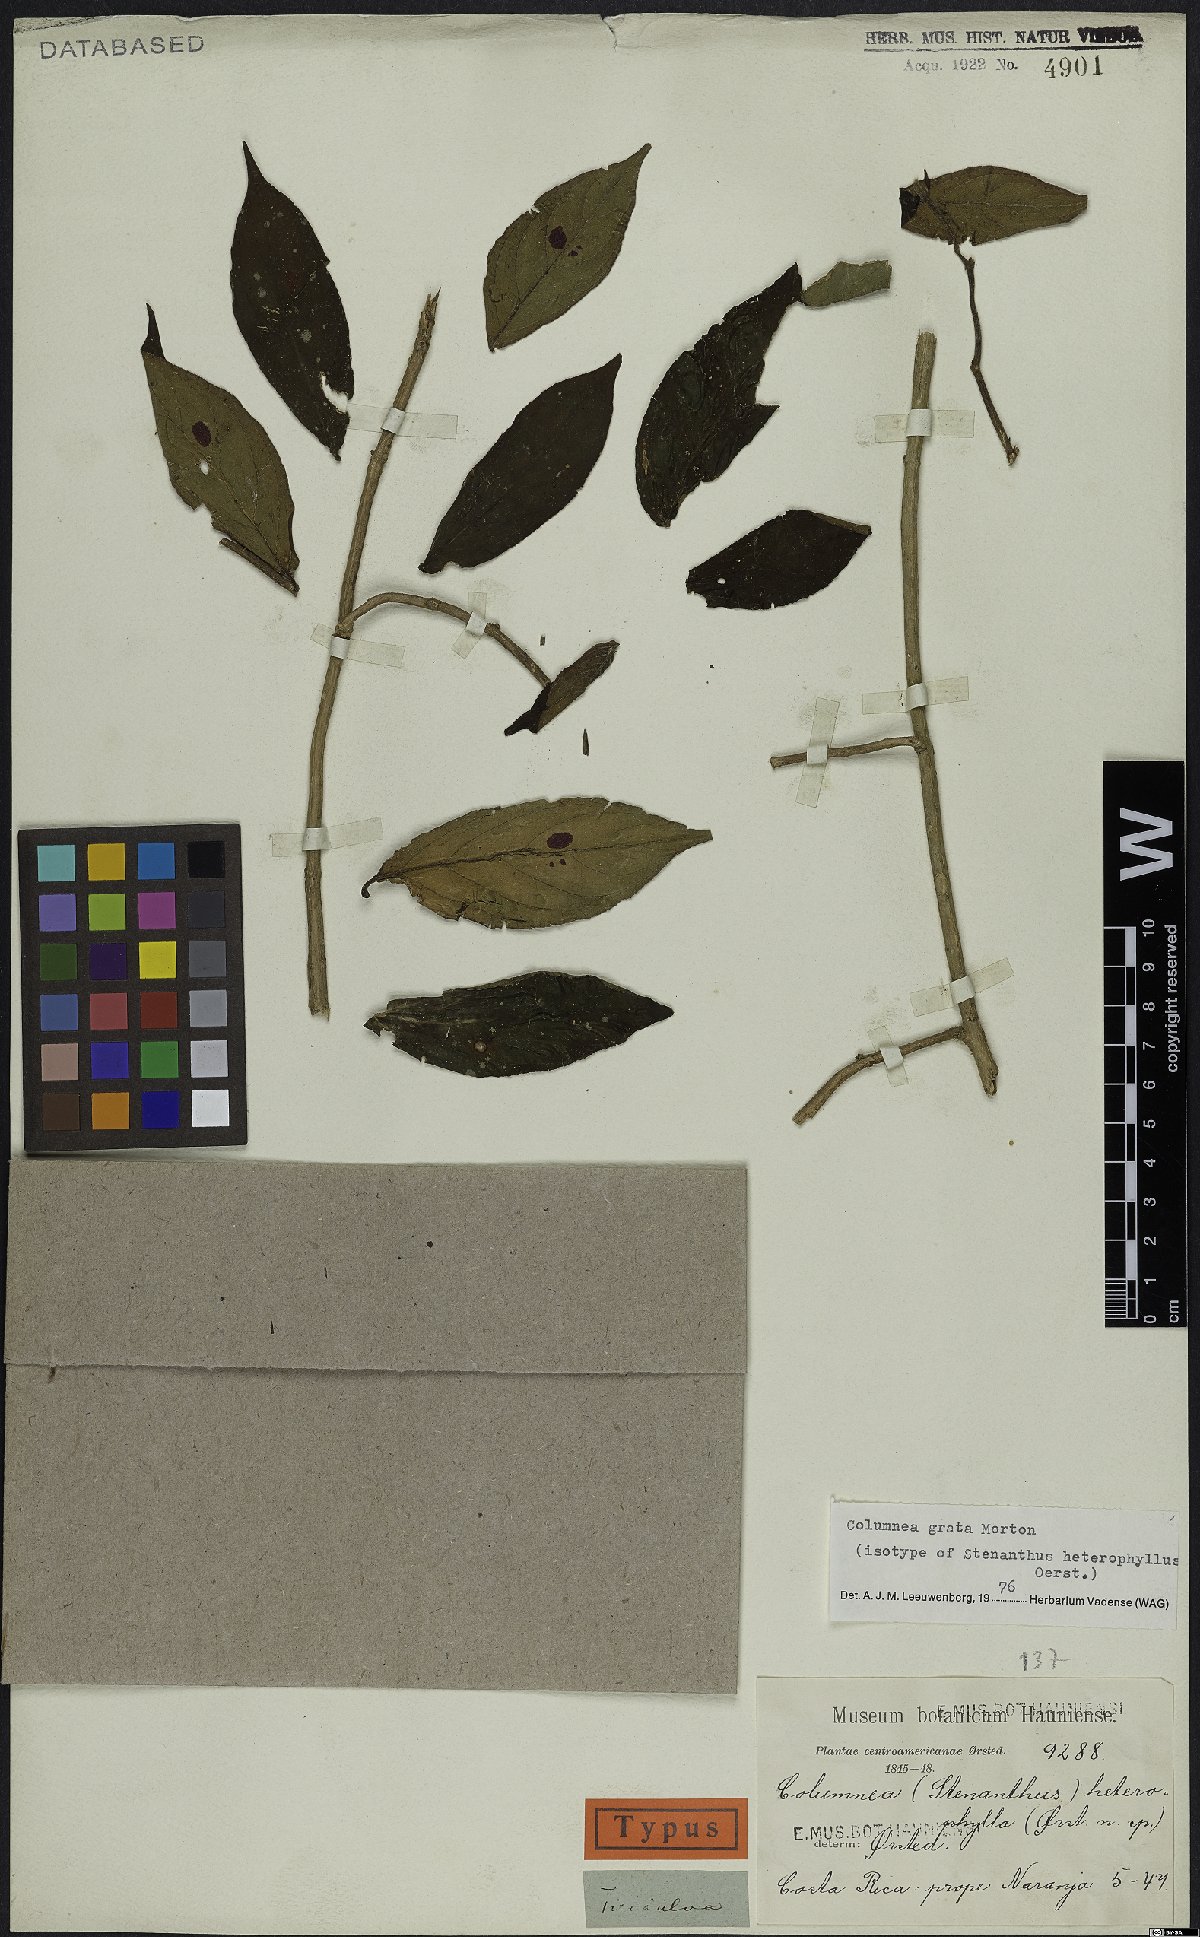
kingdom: Plantae
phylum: Tracheophyta
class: Magnoliopsida
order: Lamiales
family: Gesneriaceae
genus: Columnea
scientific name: Columnea grata
